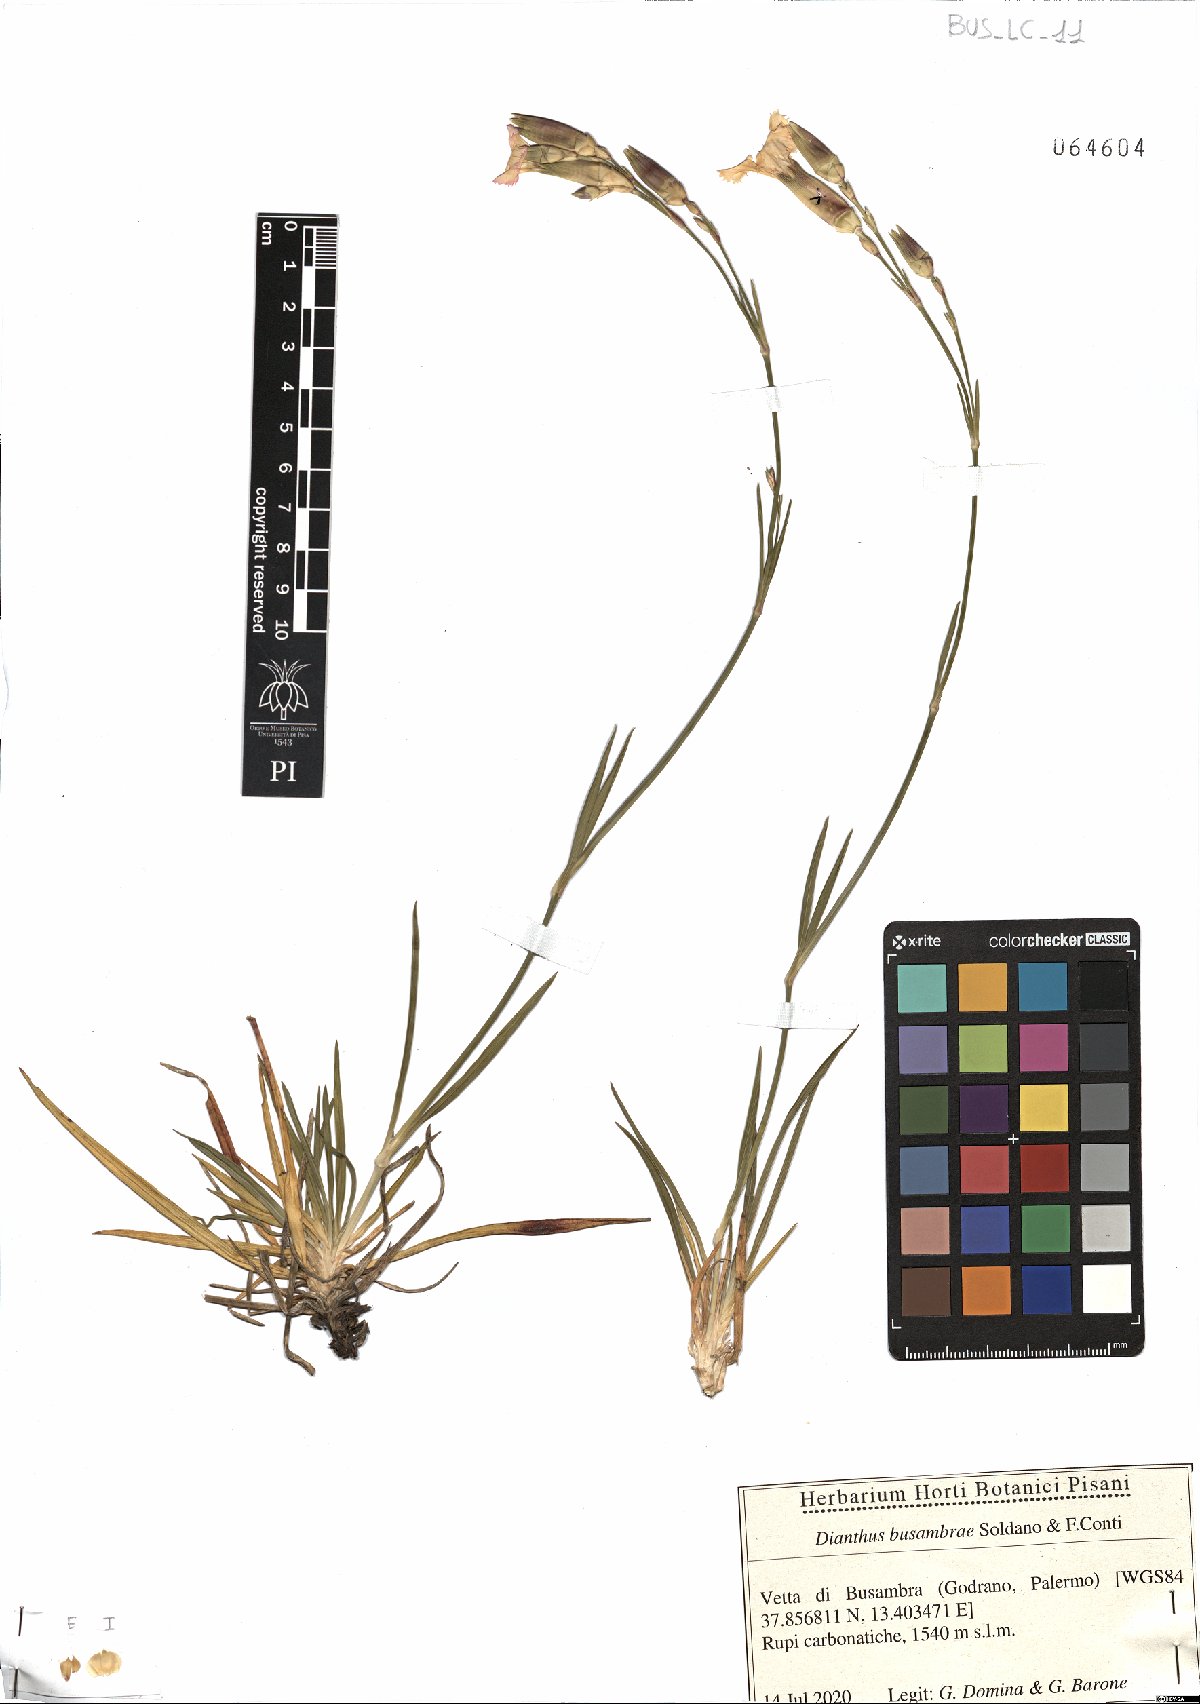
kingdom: Plantae
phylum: Tracheophyta
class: Magnoliopsida
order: Caryophyllales
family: Caryophyllaceae
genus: Dianthus
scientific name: Dianthus busambrae
